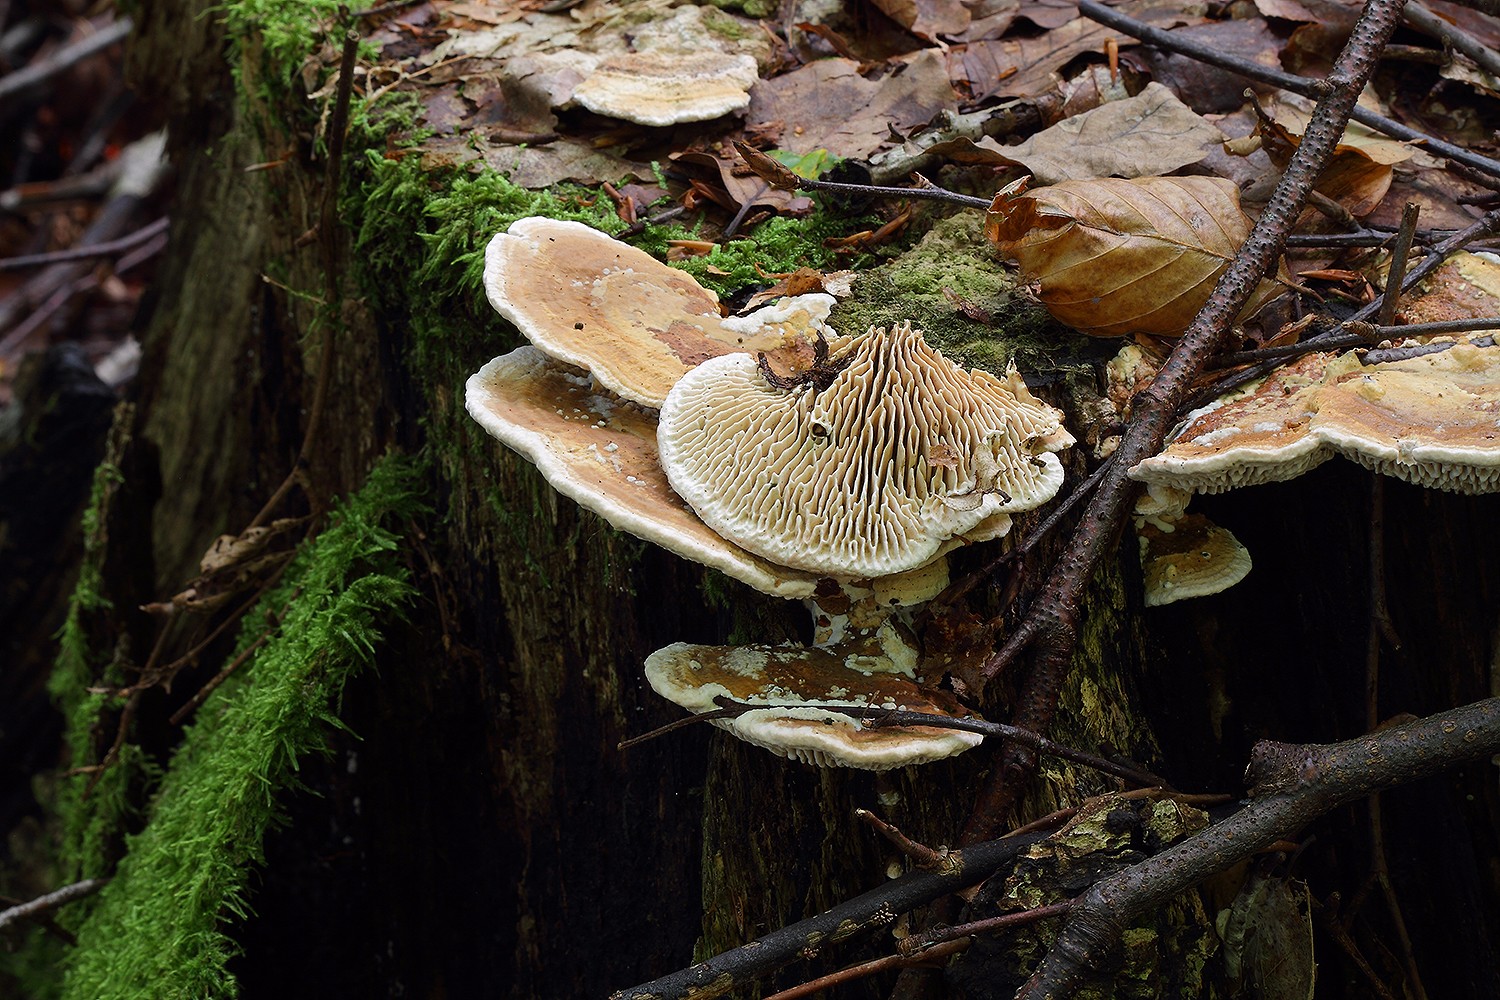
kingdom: Fungi
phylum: Basidiomycota
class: Agaricomycetes
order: Polyporales
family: Fomitopsidaceae
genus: Daedalea
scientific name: Daedalea quercina
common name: ege-labyrintsvamp
